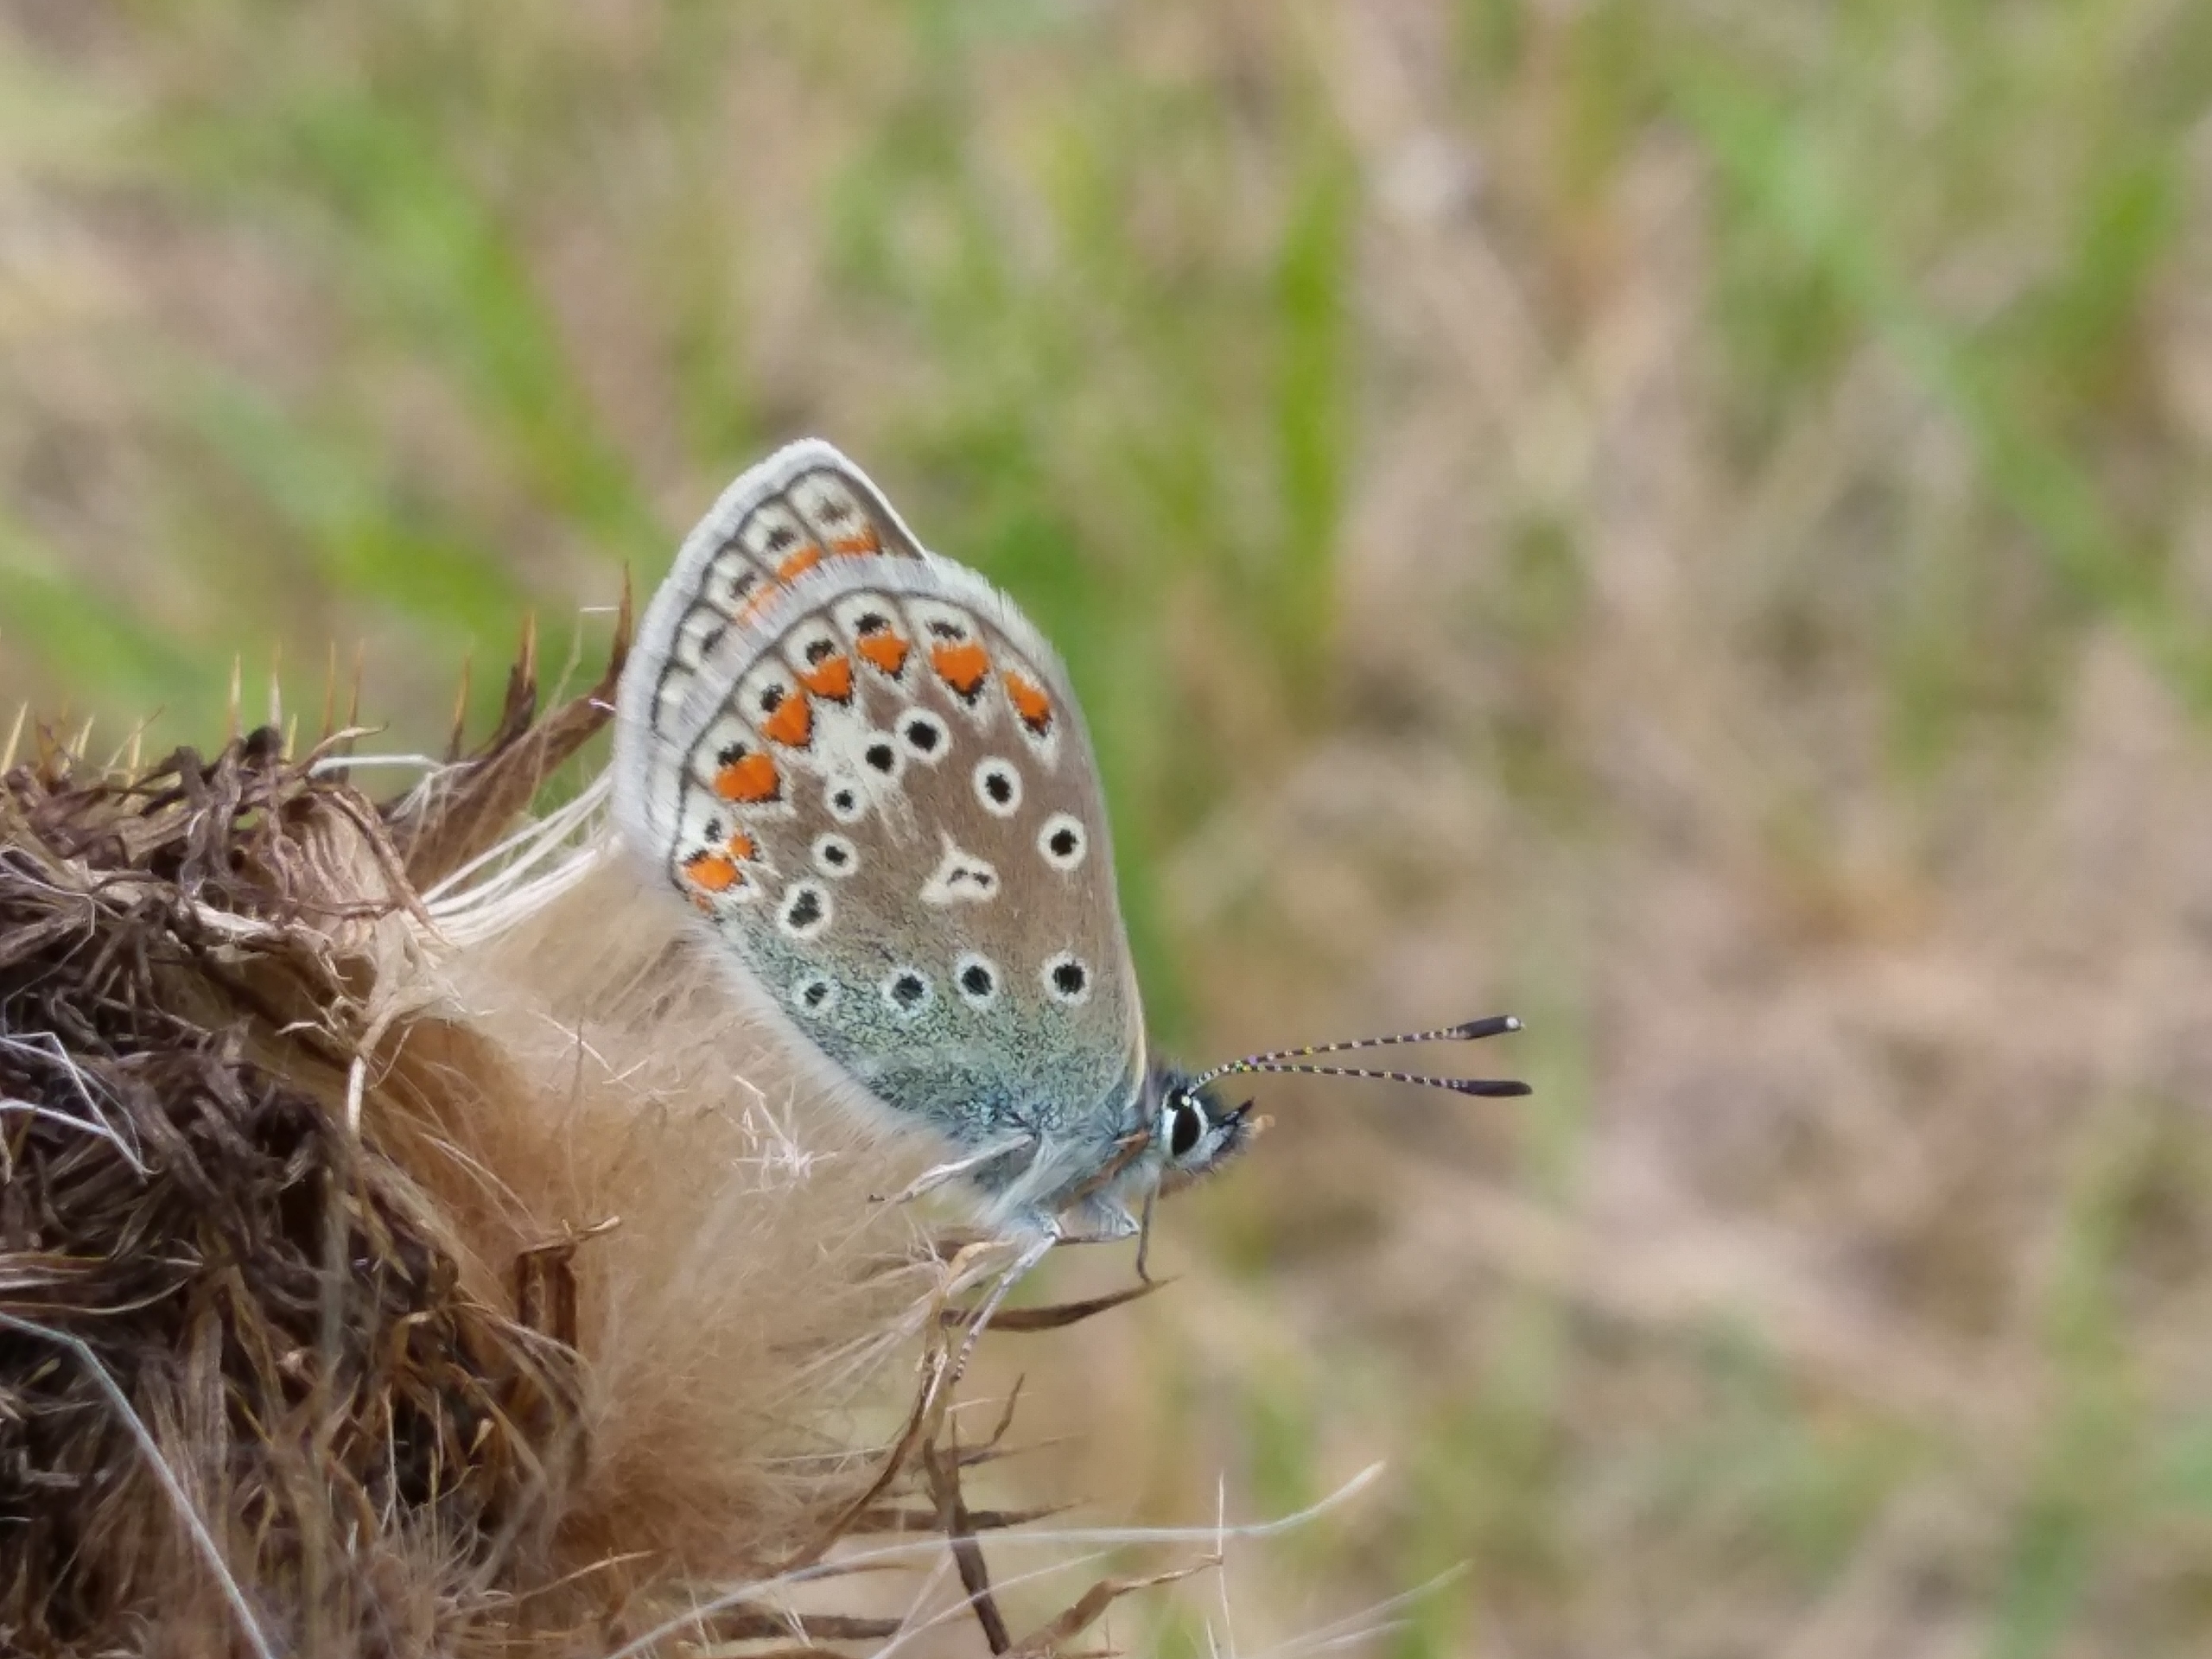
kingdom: Animalia
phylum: Arthropoda
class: Insecta
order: Lepidoptera
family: Lycaenidae
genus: Polyommatus
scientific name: Polyommatus icarus
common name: Almindelig blåfugl
